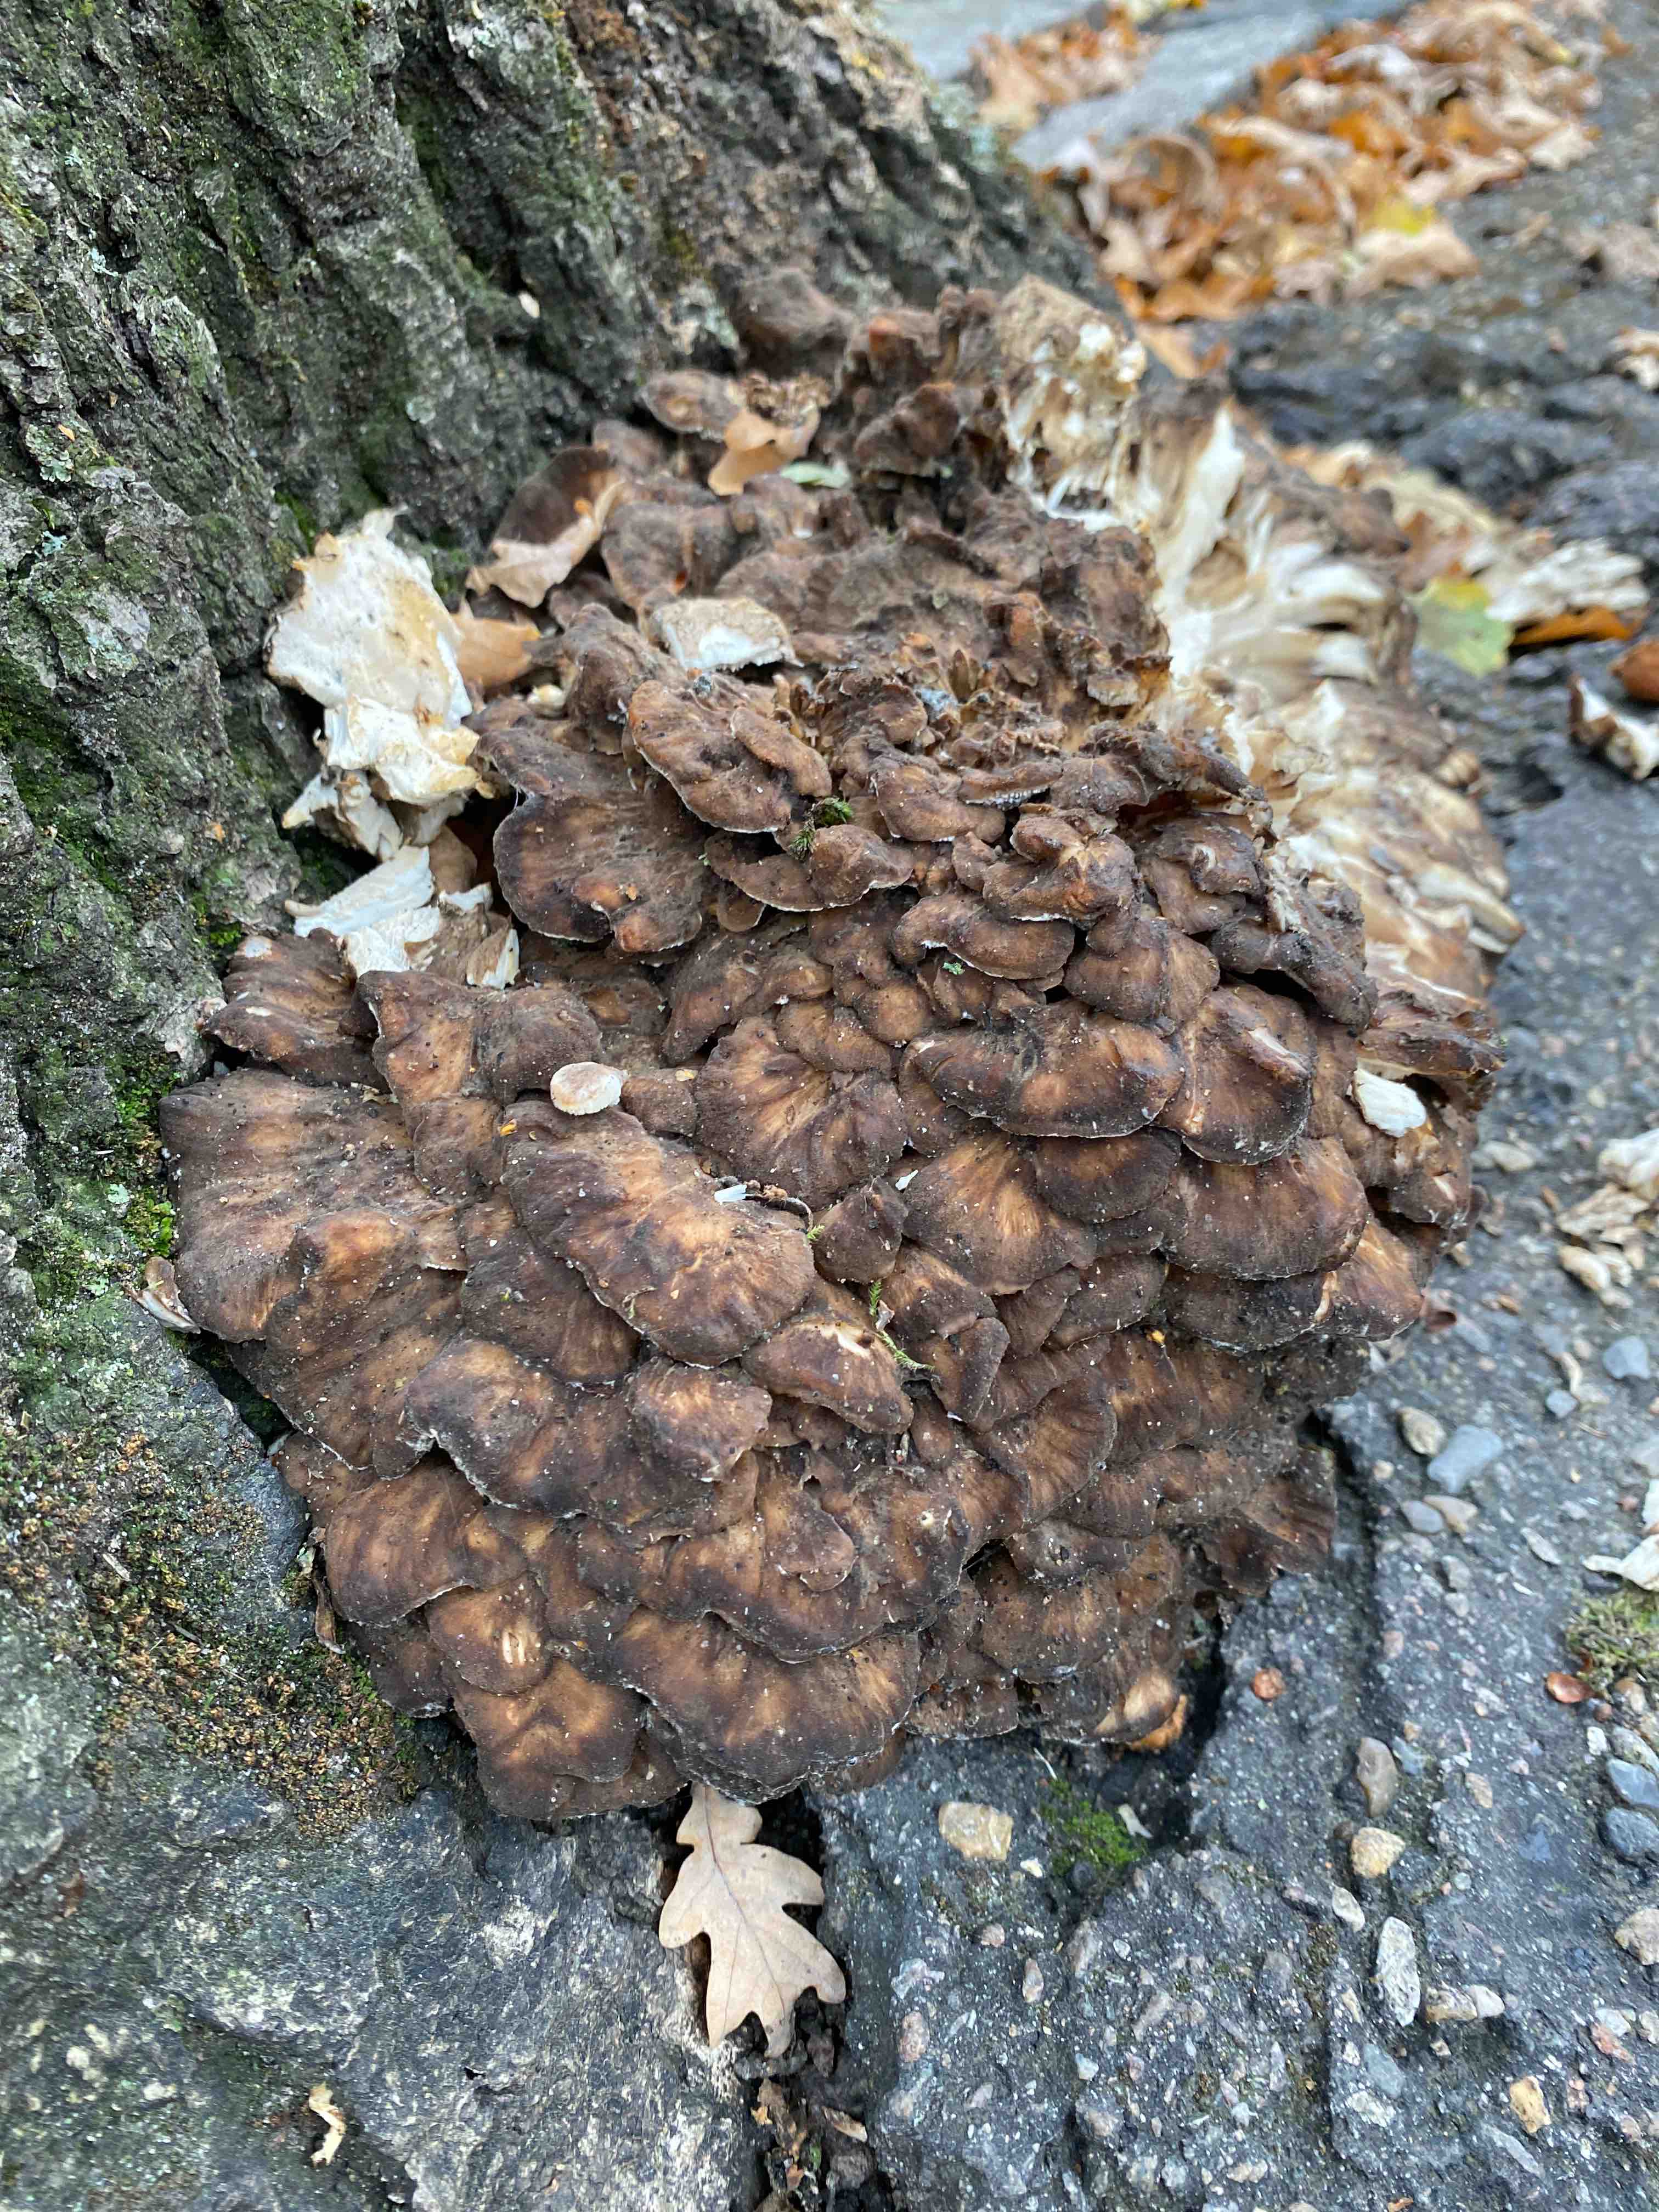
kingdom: Fungi
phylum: Basidiomycota
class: Agaricomycetes
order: Polyporales
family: Grifolaceae
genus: Grifola
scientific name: Grifola frondosa
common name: tueporesvamp
